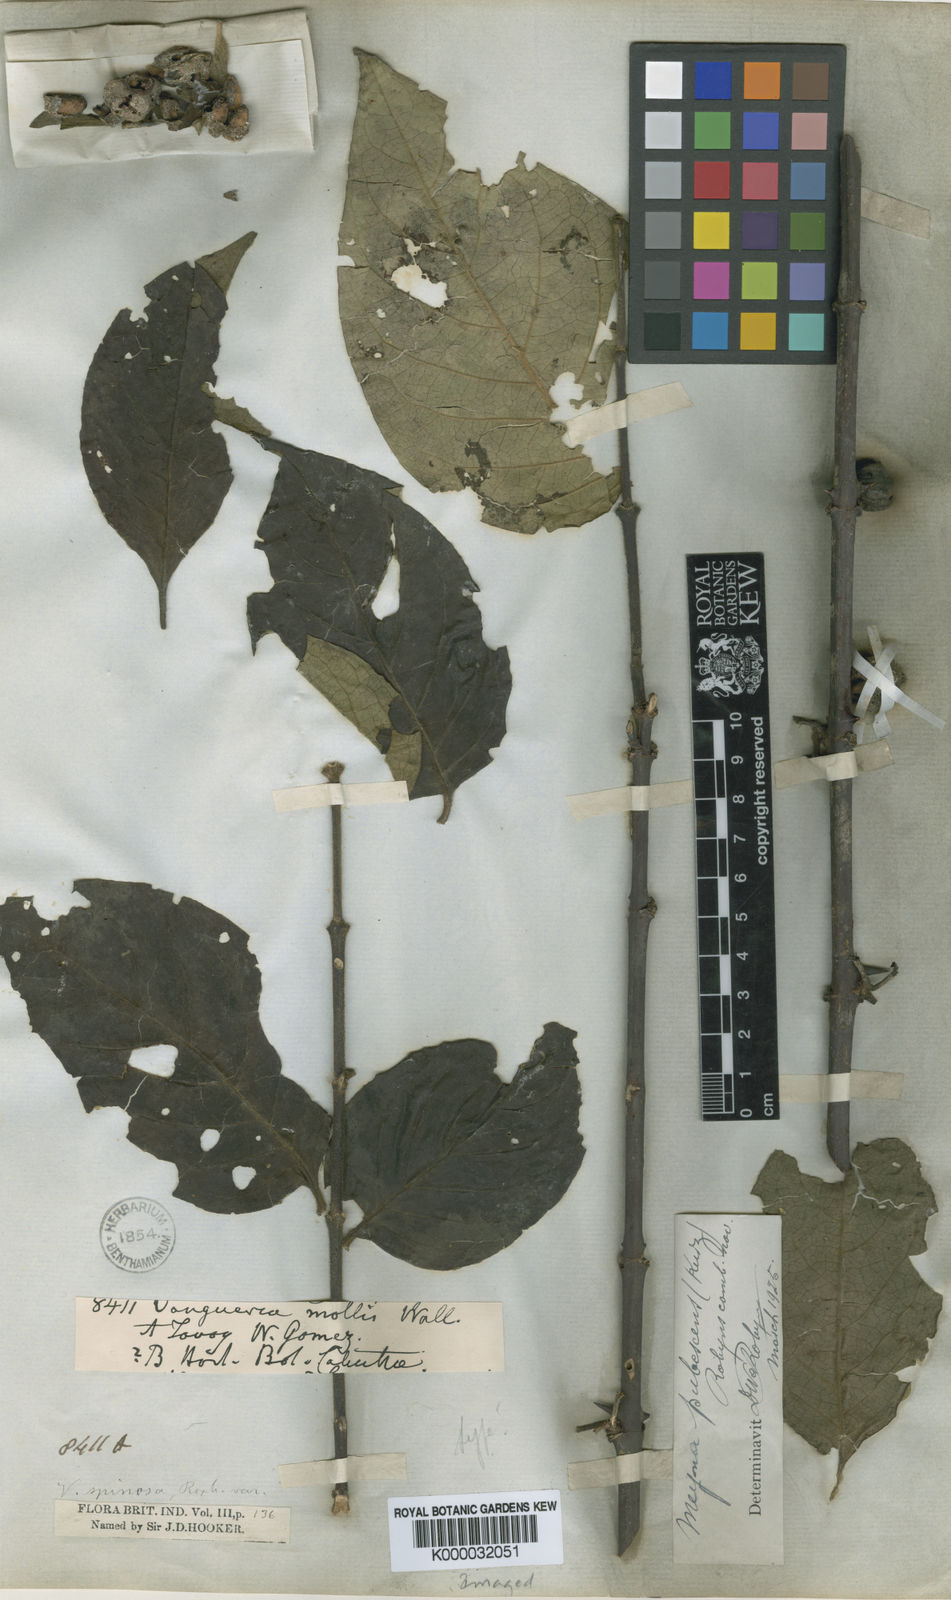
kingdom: Plantae
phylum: Tracheophyta
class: Magnoliopsida
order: Gentianales
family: Rubiaceae
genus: Meyna
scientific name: Meyna pubescens
